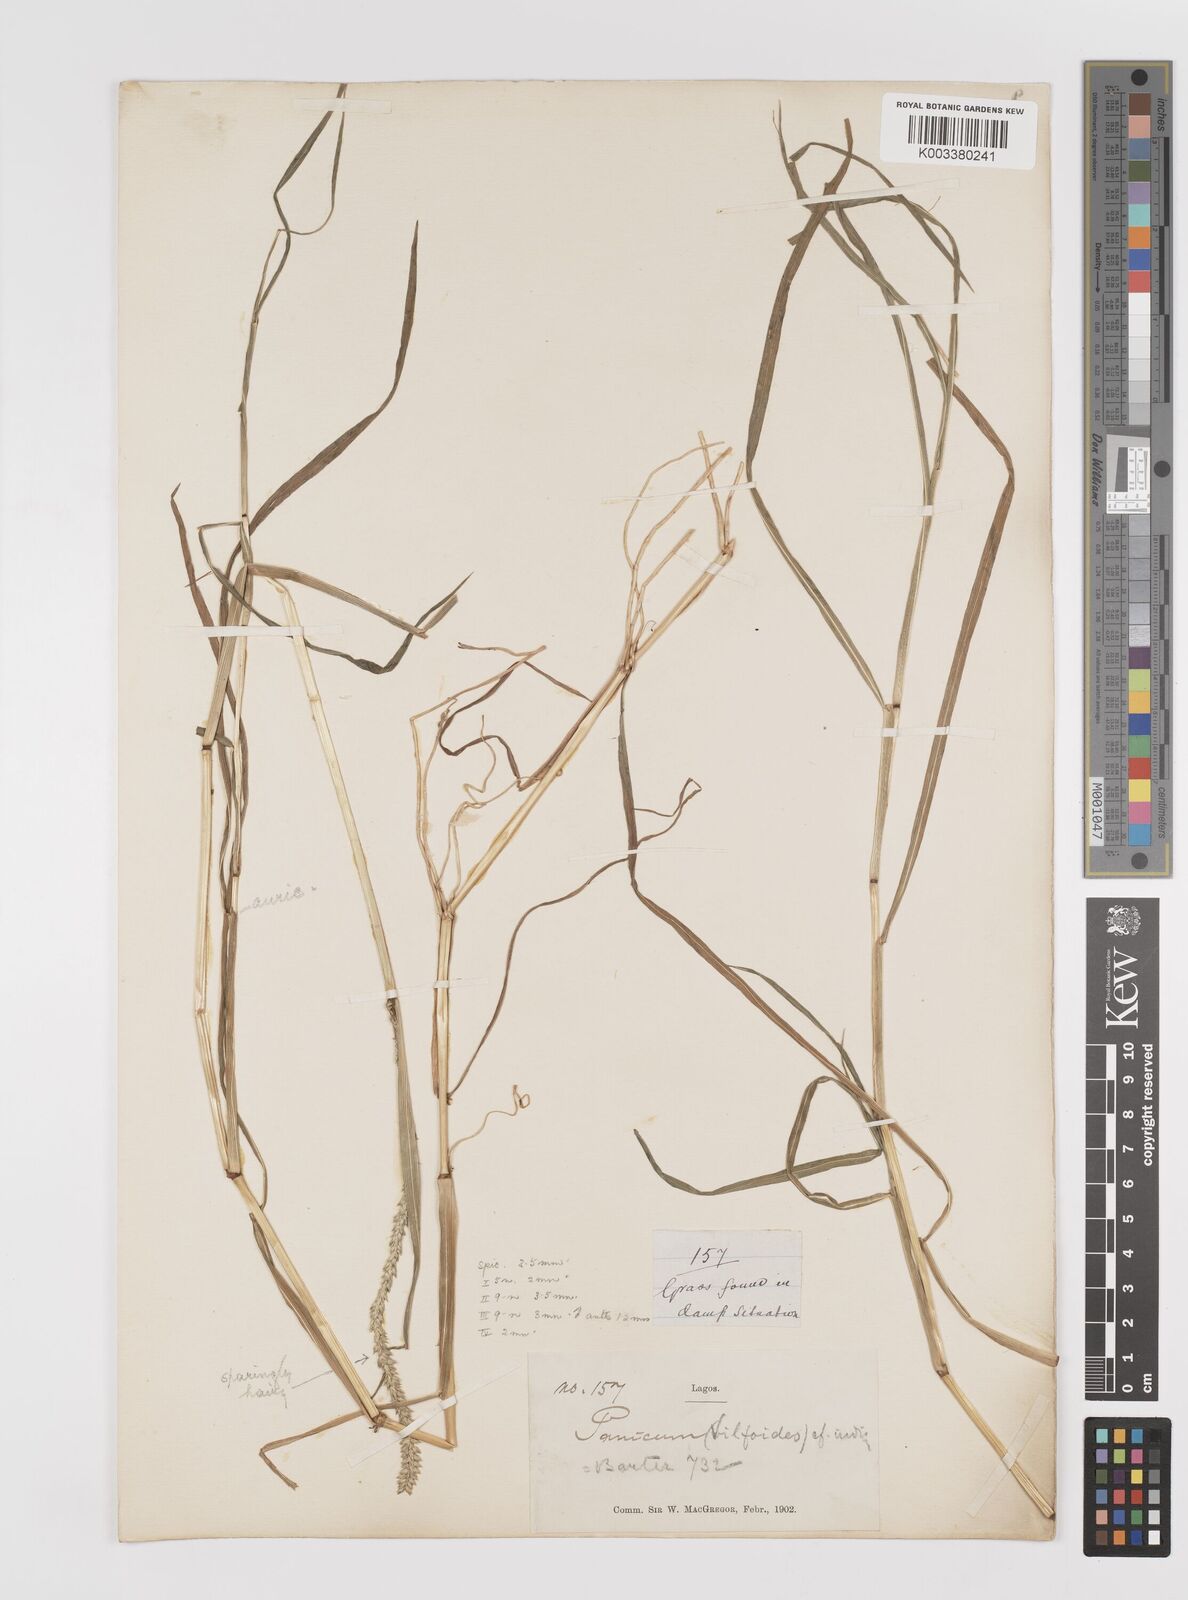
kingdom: Plantae
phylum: Tracheophyta
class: Liliopsida
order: Poales
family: Poaceae
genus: Sacciolepis
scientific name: Sacciolepis indica
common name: Glenwoodgrass
